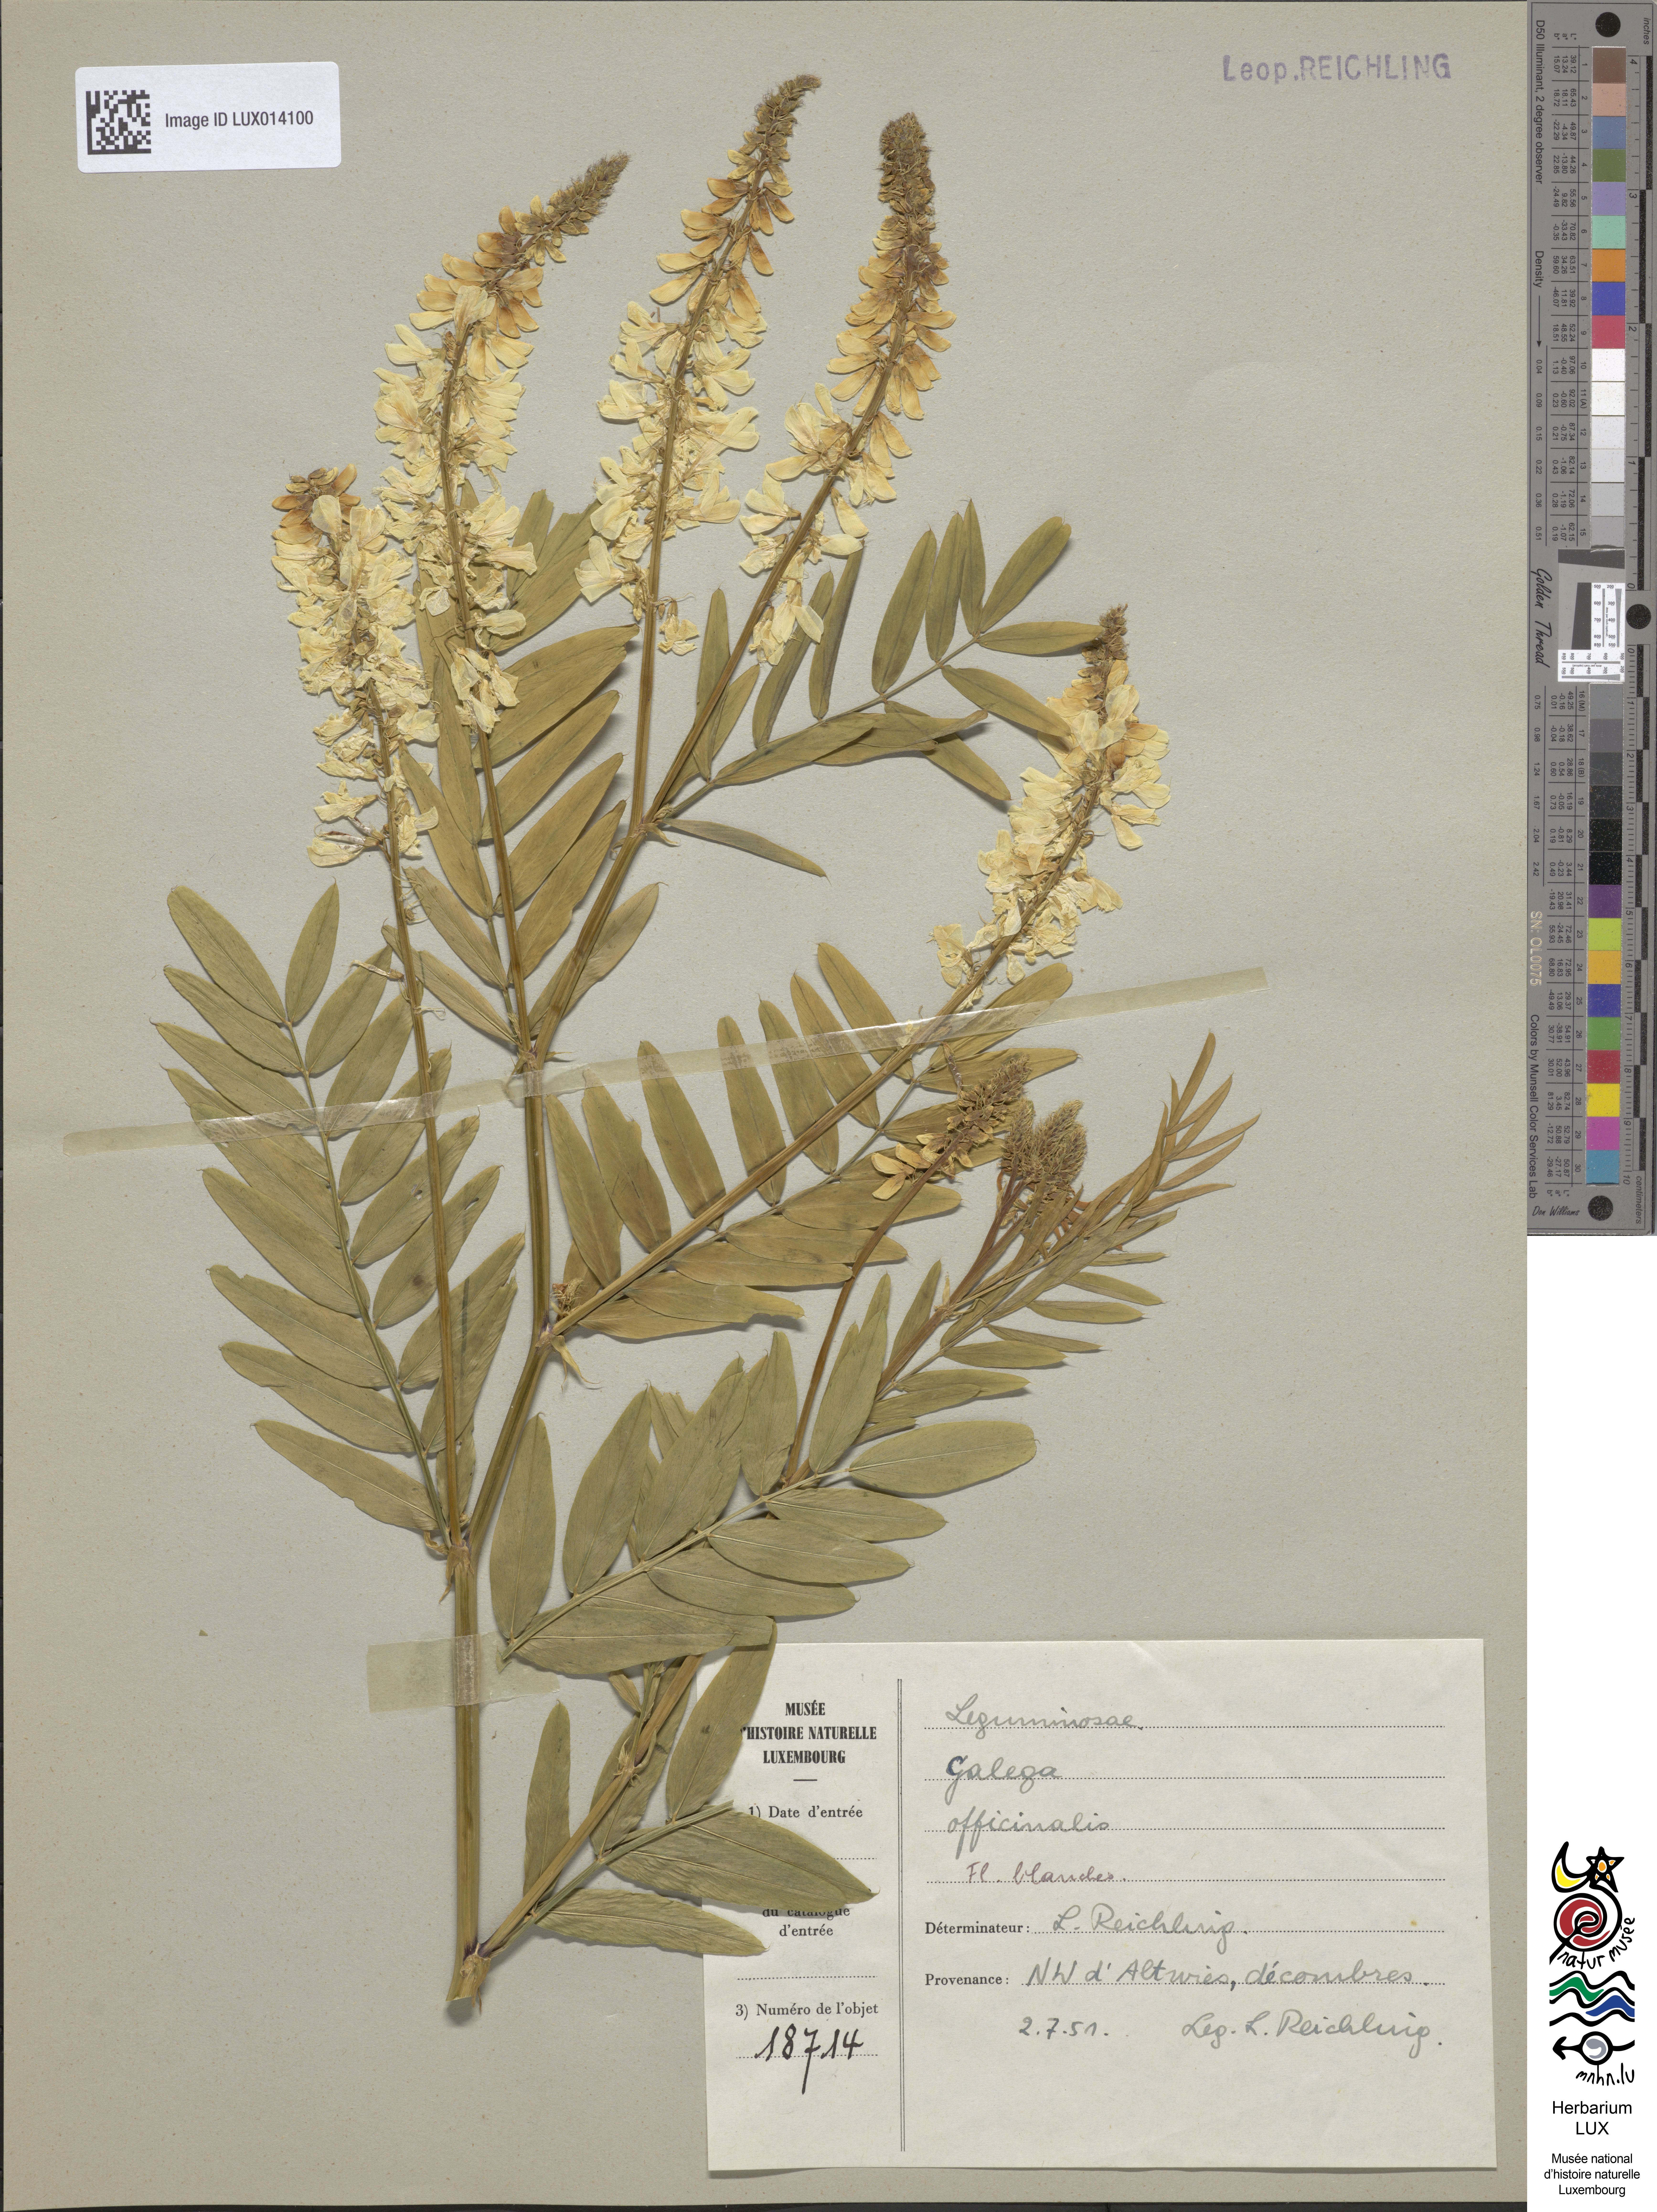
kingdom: Plantae
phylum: Tracheophyta
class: Magnoliopsida
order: Fabales
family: Fabaceae
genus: Galega
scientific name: Galega officinalis
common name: Goat's-rue
